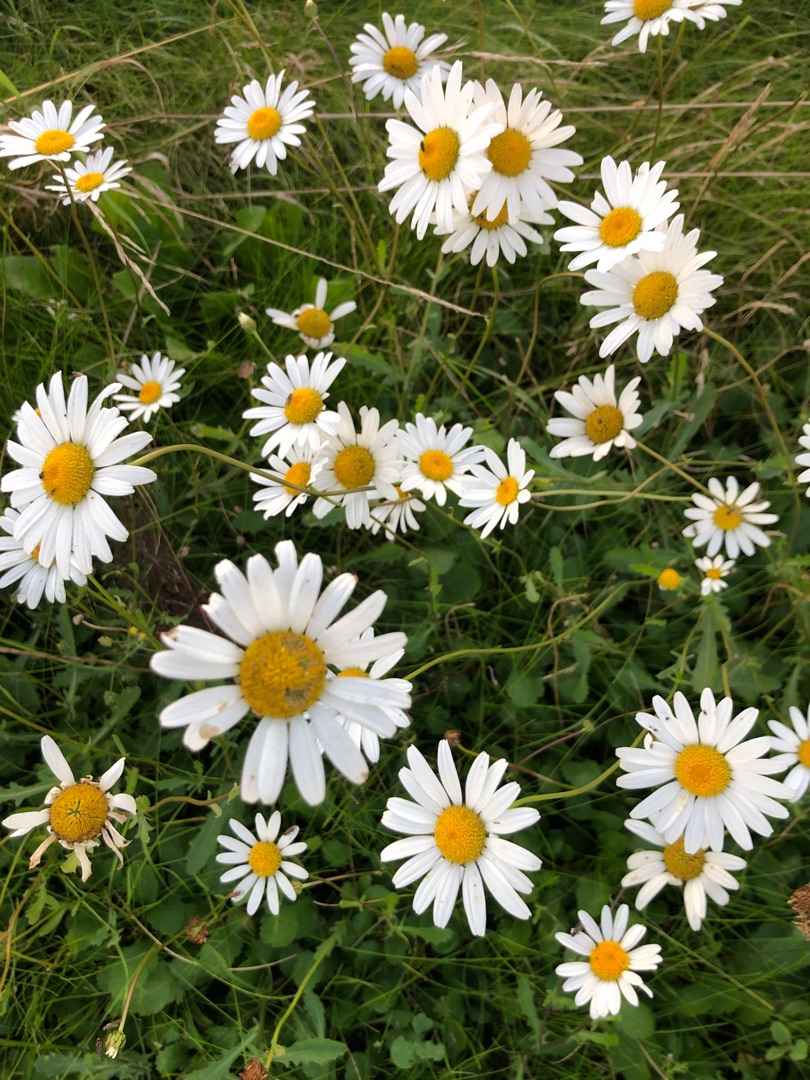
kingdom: Plantae
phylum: Tracheophyta
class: Magnoliopsida
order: Asterales
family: Asteraceae
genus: Leucanthemum
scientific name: Leucanthemum vulgare
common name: Hvid okseøje
